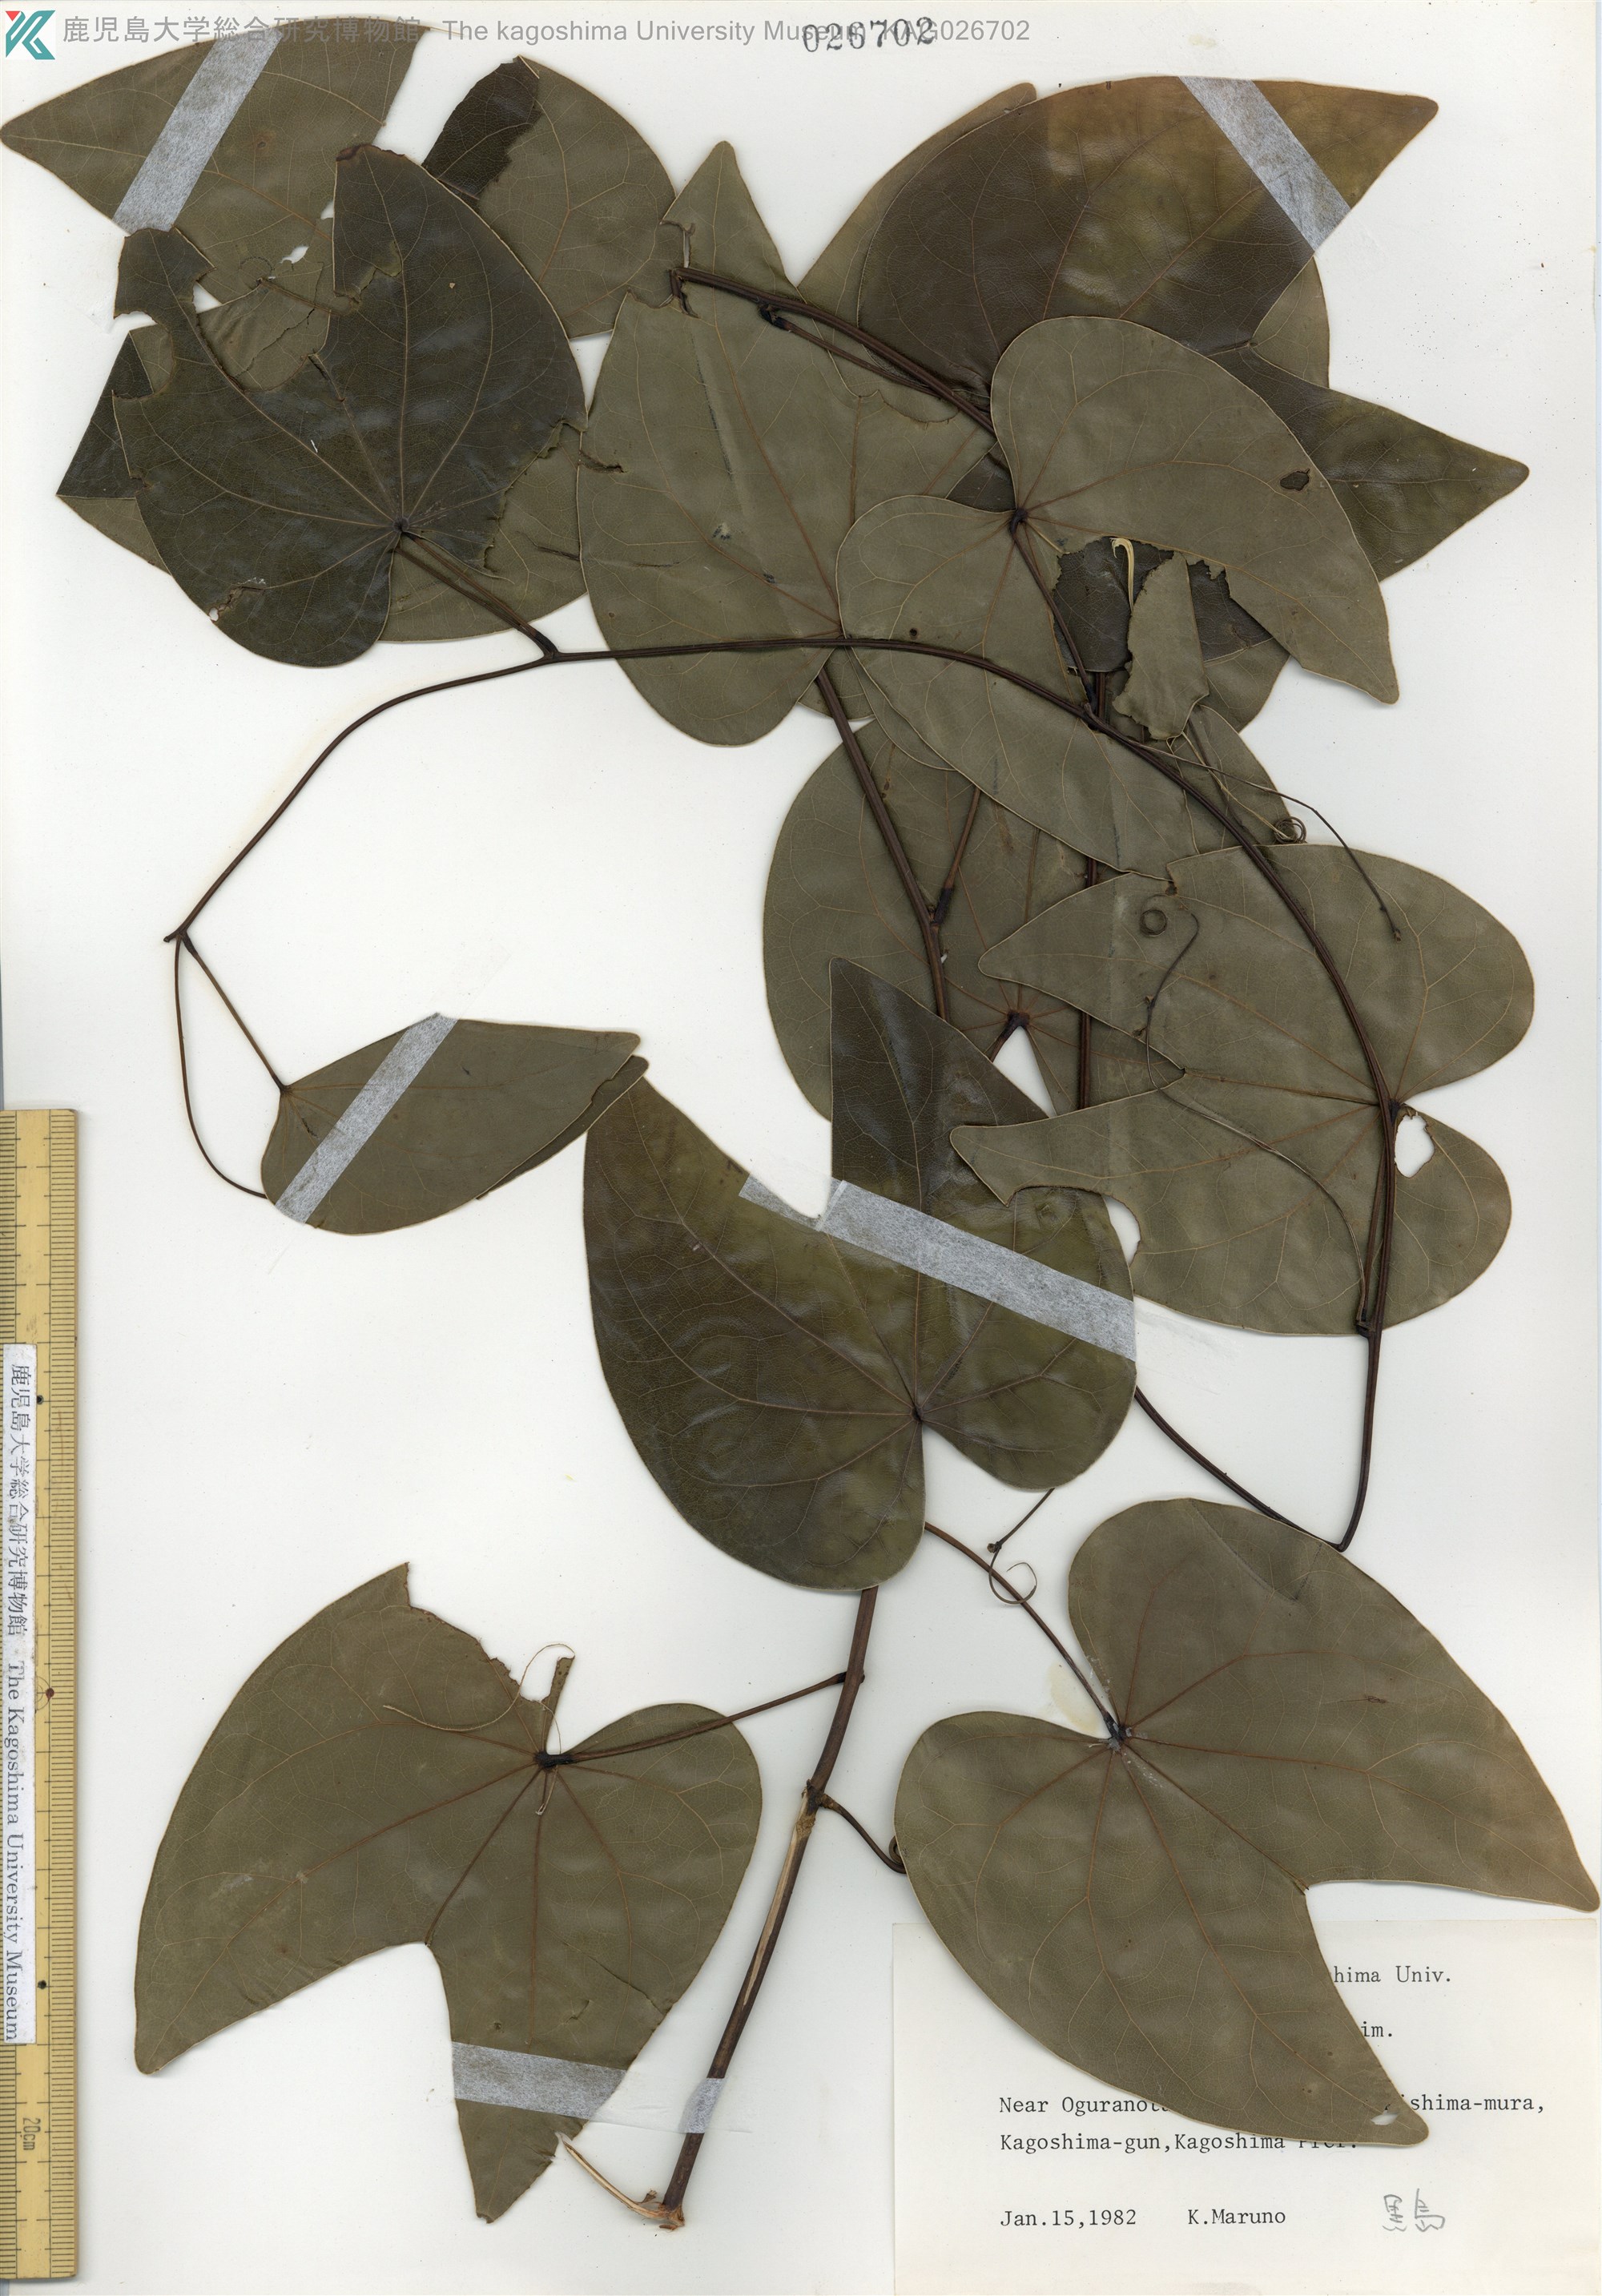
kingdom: Plantae
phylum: Tracheophyta
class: Magnoliopsida
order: Fabales
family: Fabaceae
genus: Phanera
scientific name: Phanera japonica
